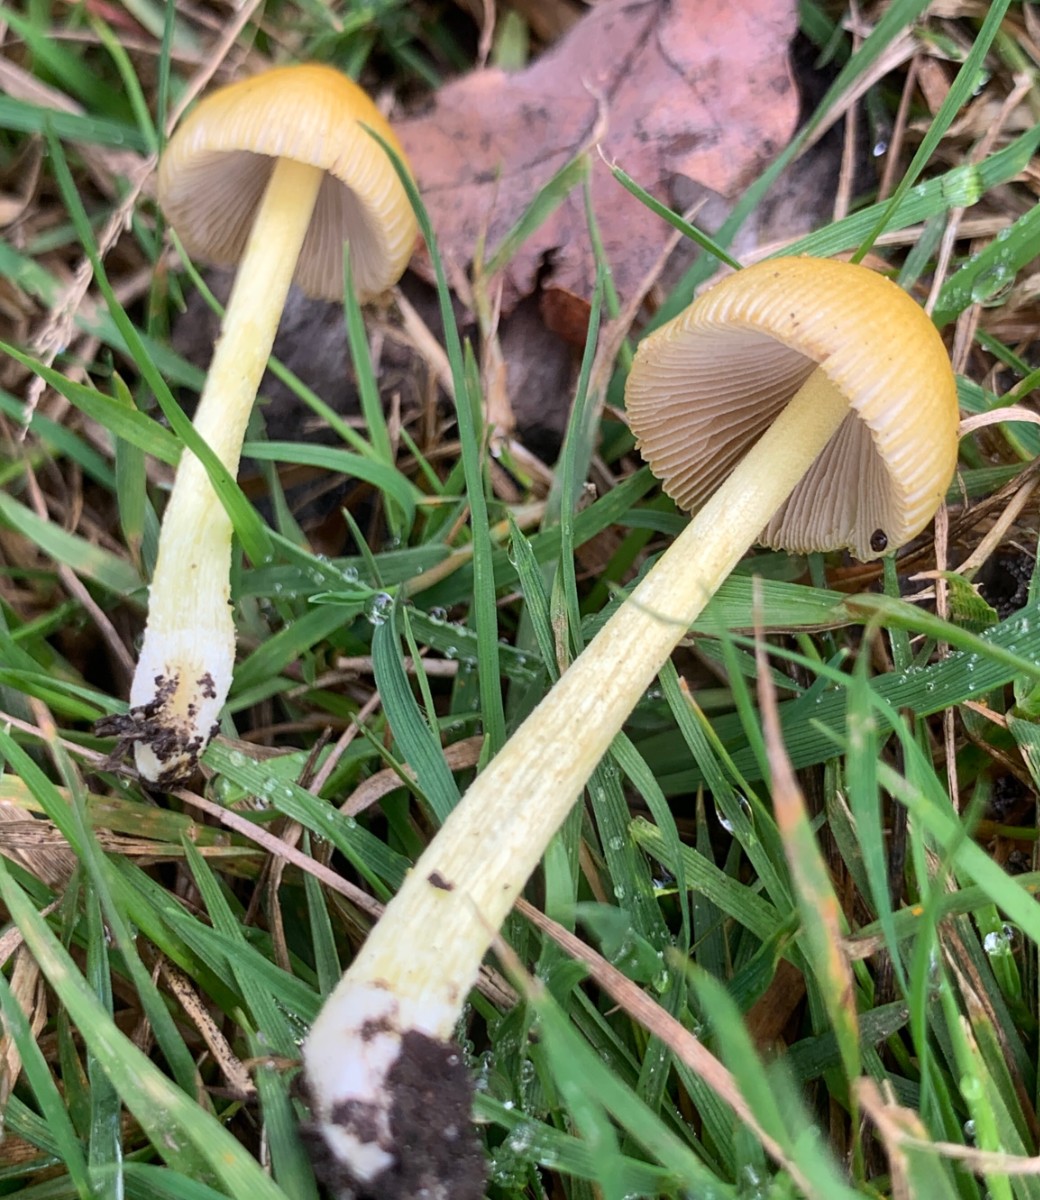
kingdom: Fungi
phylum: Basidiomycota
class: Agaricomycetes
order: Agaricales
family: Bolbitiaceae
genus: Bolbitius
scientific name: Bolbitius titubans
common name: almindelig gulhat
